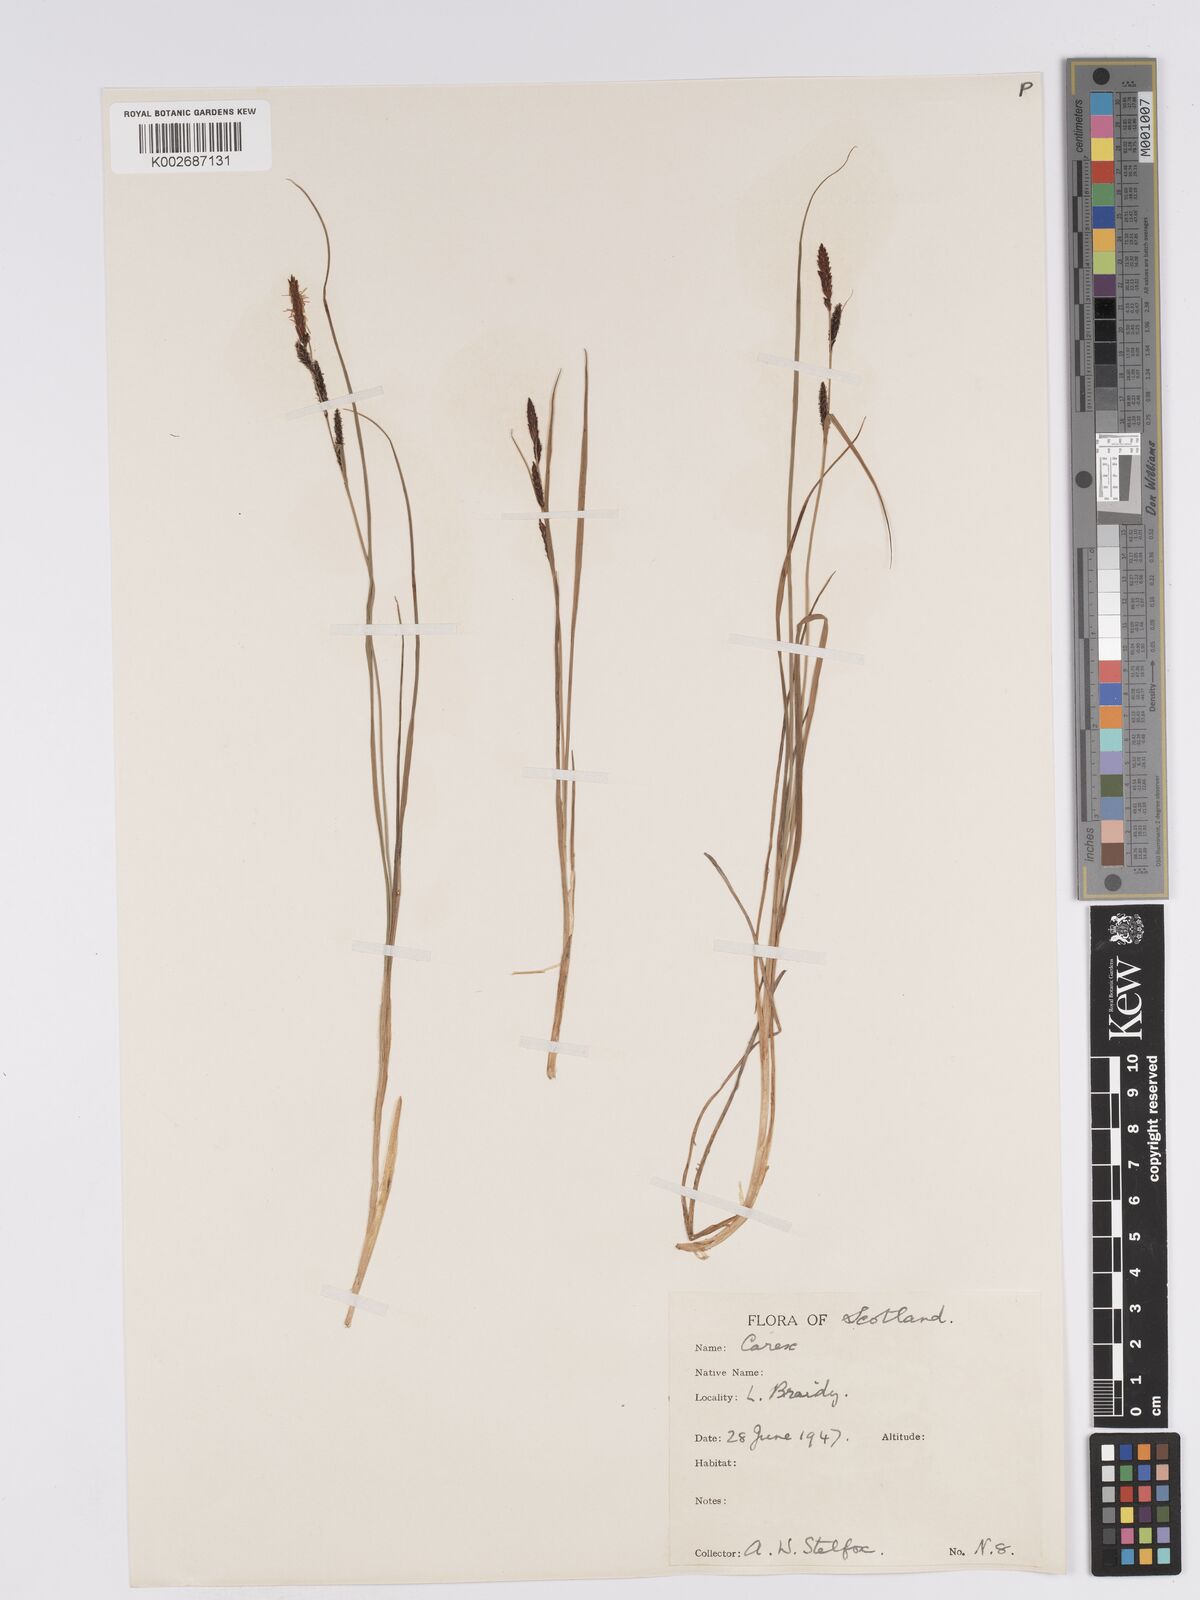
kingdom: Plantae
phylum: Tracheophyta
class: Liliopsida
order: Poales
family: Cyperaceae
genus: Carex
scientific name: Carex nigra
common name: Common sedge
